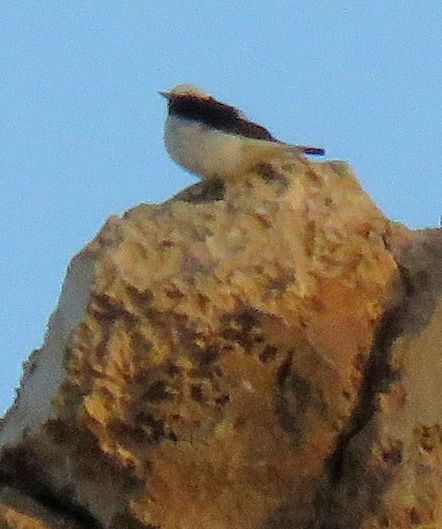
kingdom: Animalia
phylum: Chordata
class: Aves
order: Passeriformes
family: Muscicapidae
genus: Oenanthe
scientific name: Oenanthe lugens
